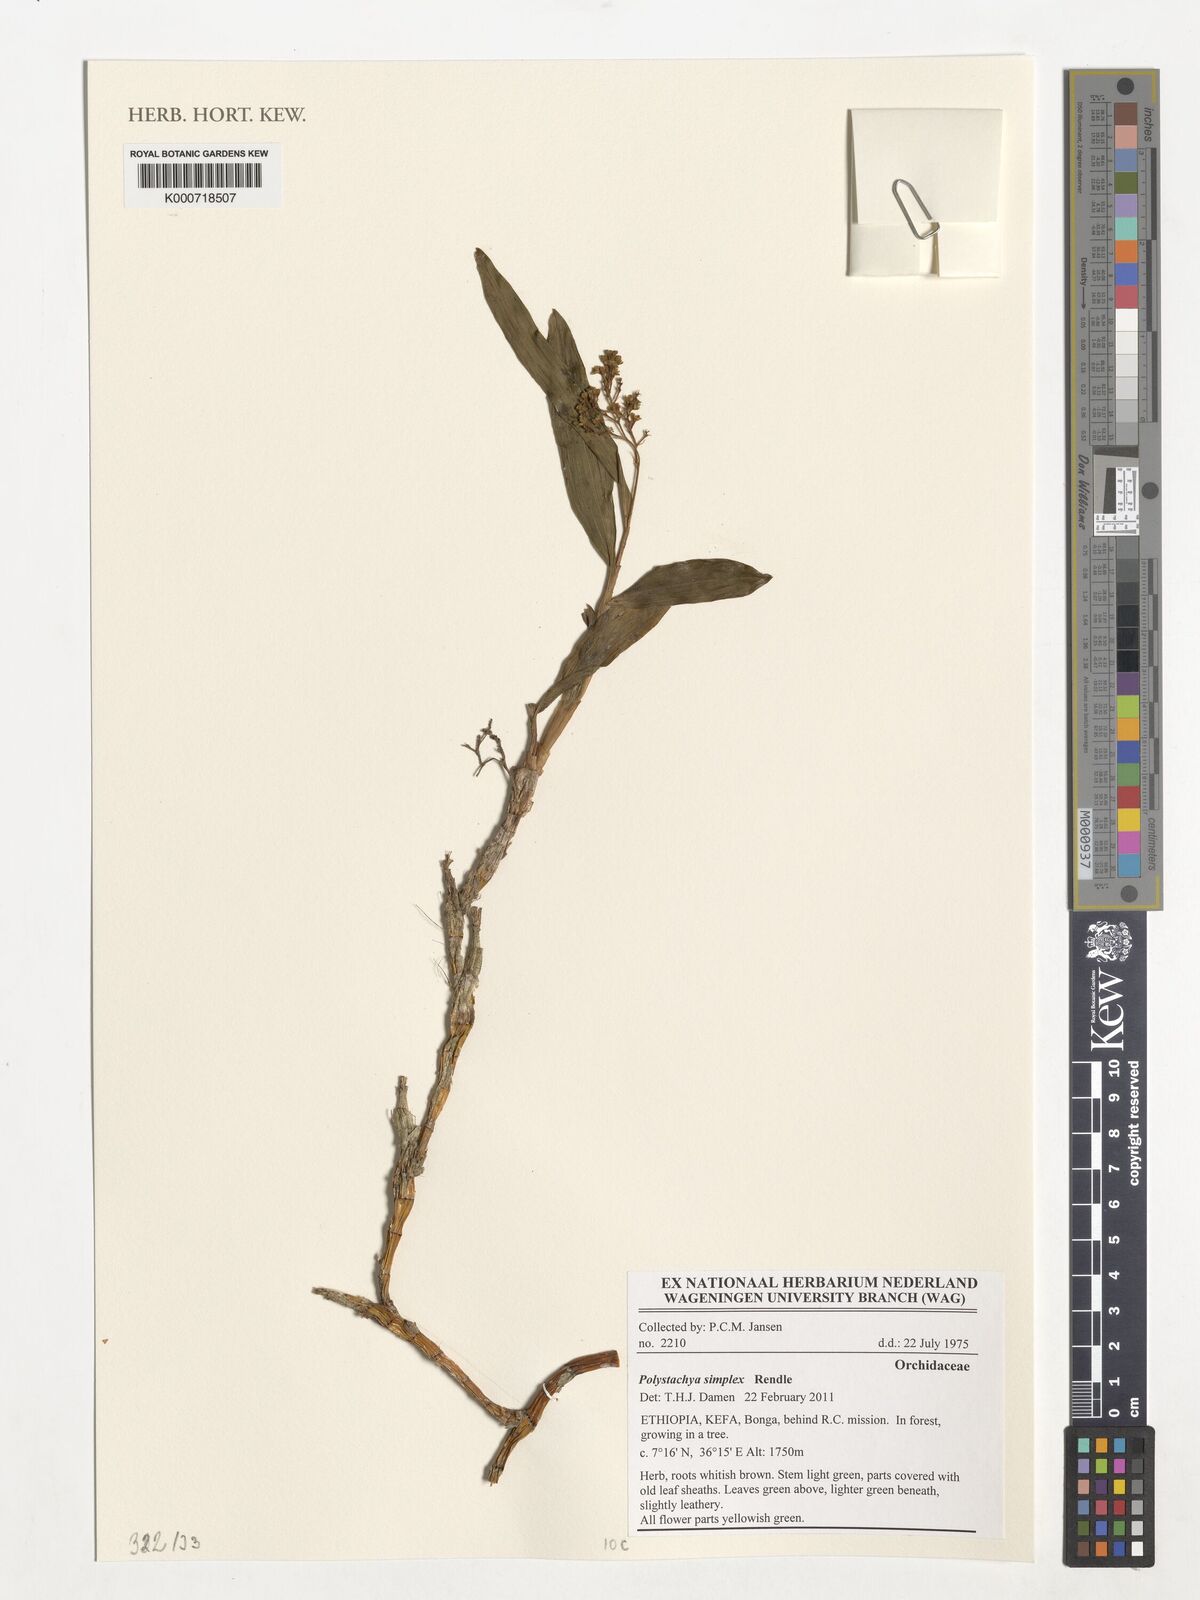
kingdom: Plantae
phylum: Tracheophyta
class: Liliopsida
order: Asparagales
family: Orchidaceae
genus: Polystachya
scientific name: Polystachya simplex
